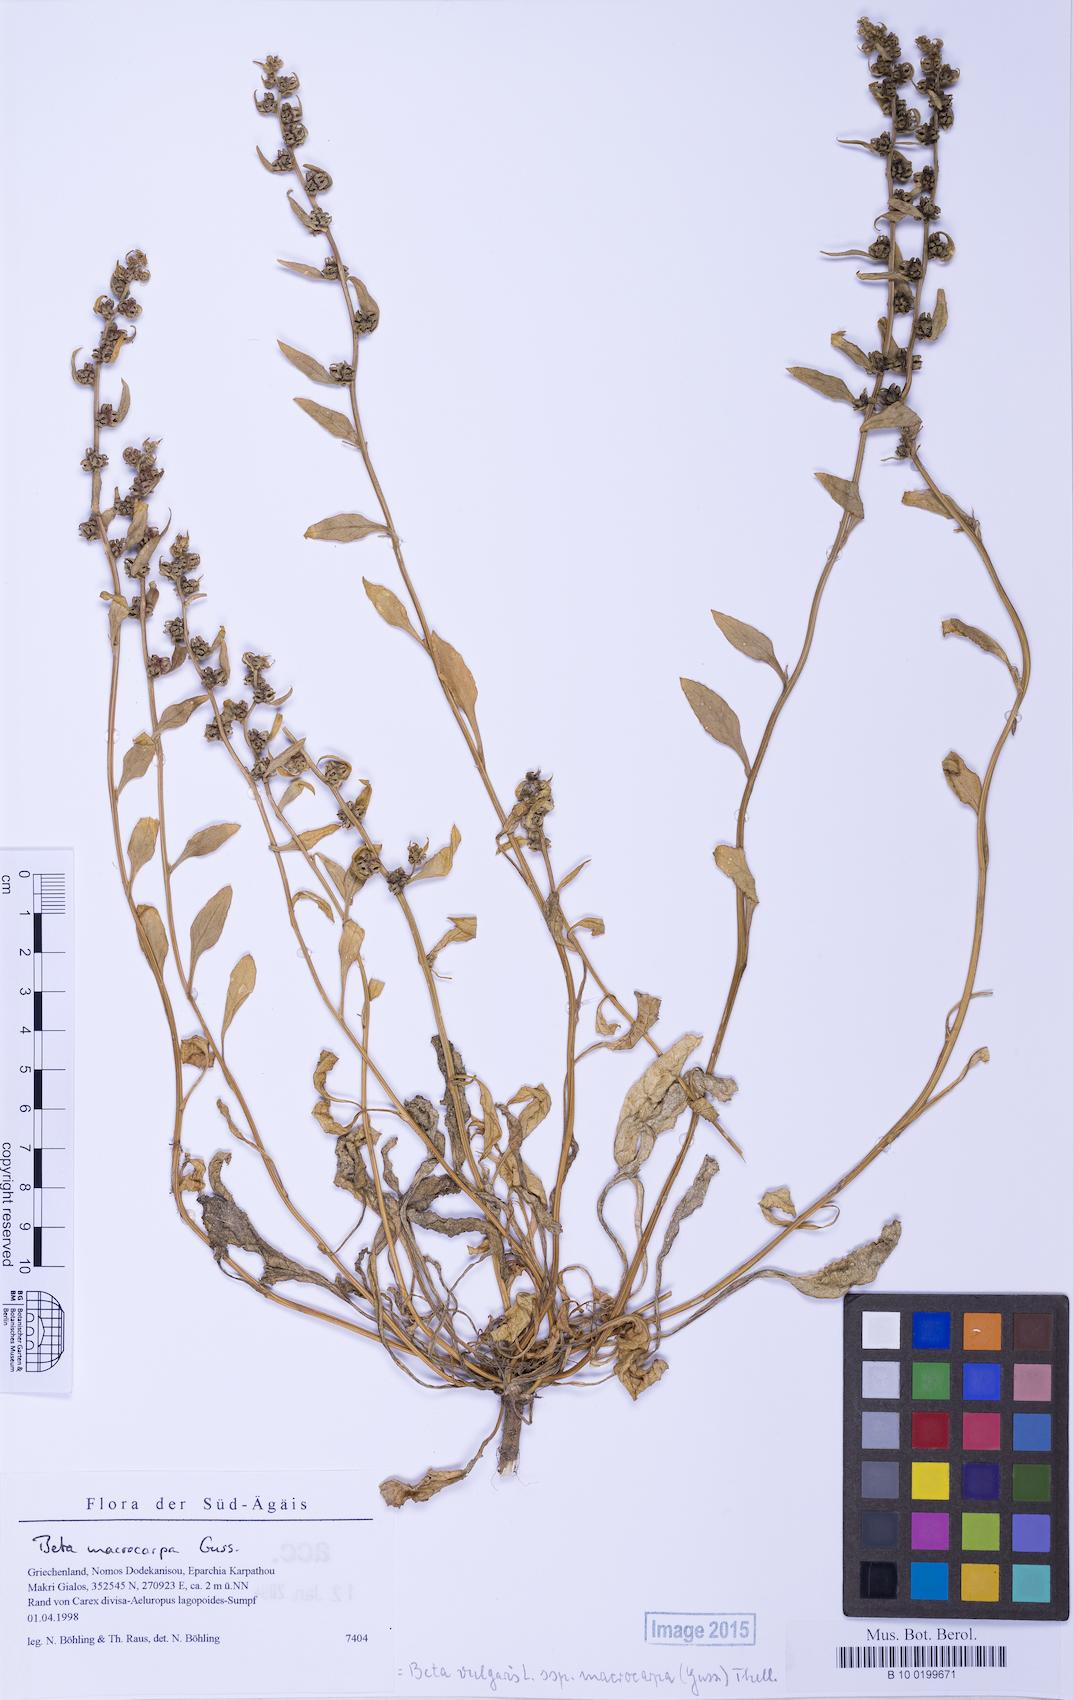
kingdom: Plantae
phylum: Tracheophyta
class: Magnoliopsida
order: Caryophyllales
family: Amaranthaceae
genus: Beta
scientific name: Beta macrocarpa
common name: Beet
